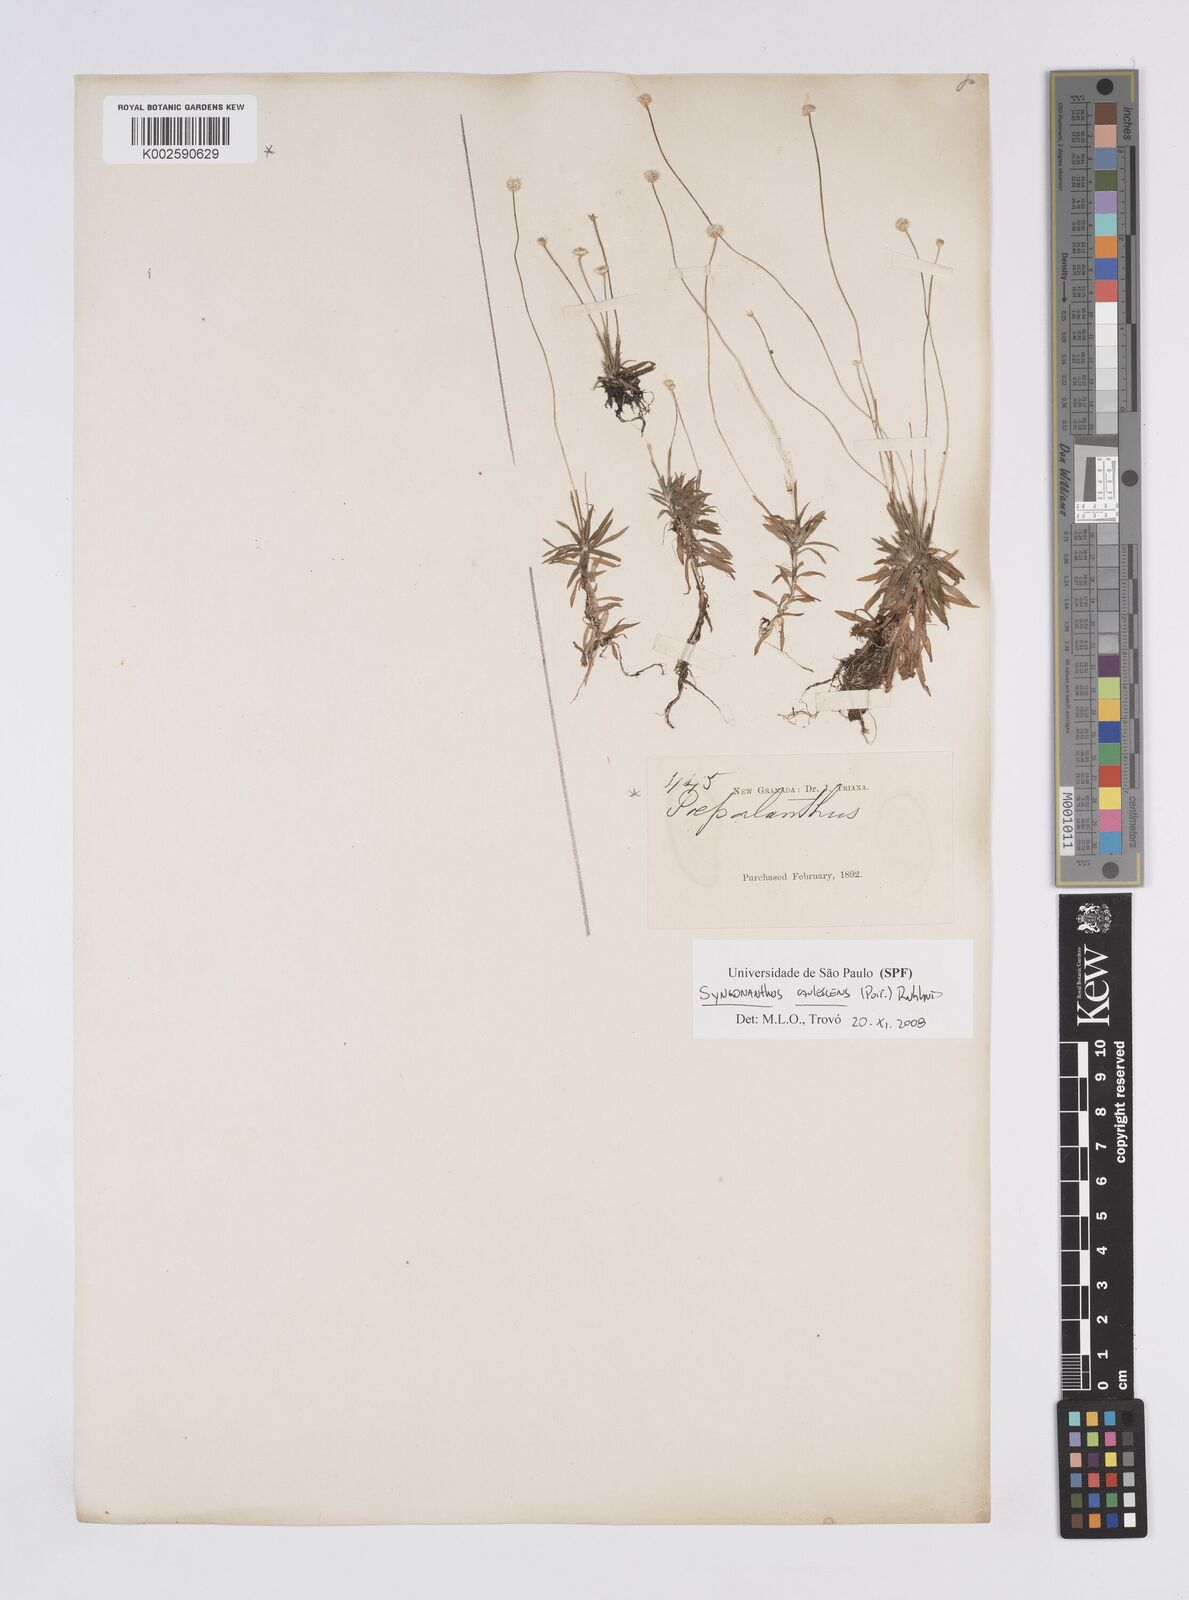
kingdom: Plantae
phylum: Tracheophyta
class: Liliopsida
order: Poales
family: Eriocaulaceae
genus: Syngonanthus
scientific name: Syngonanthus caulescens
